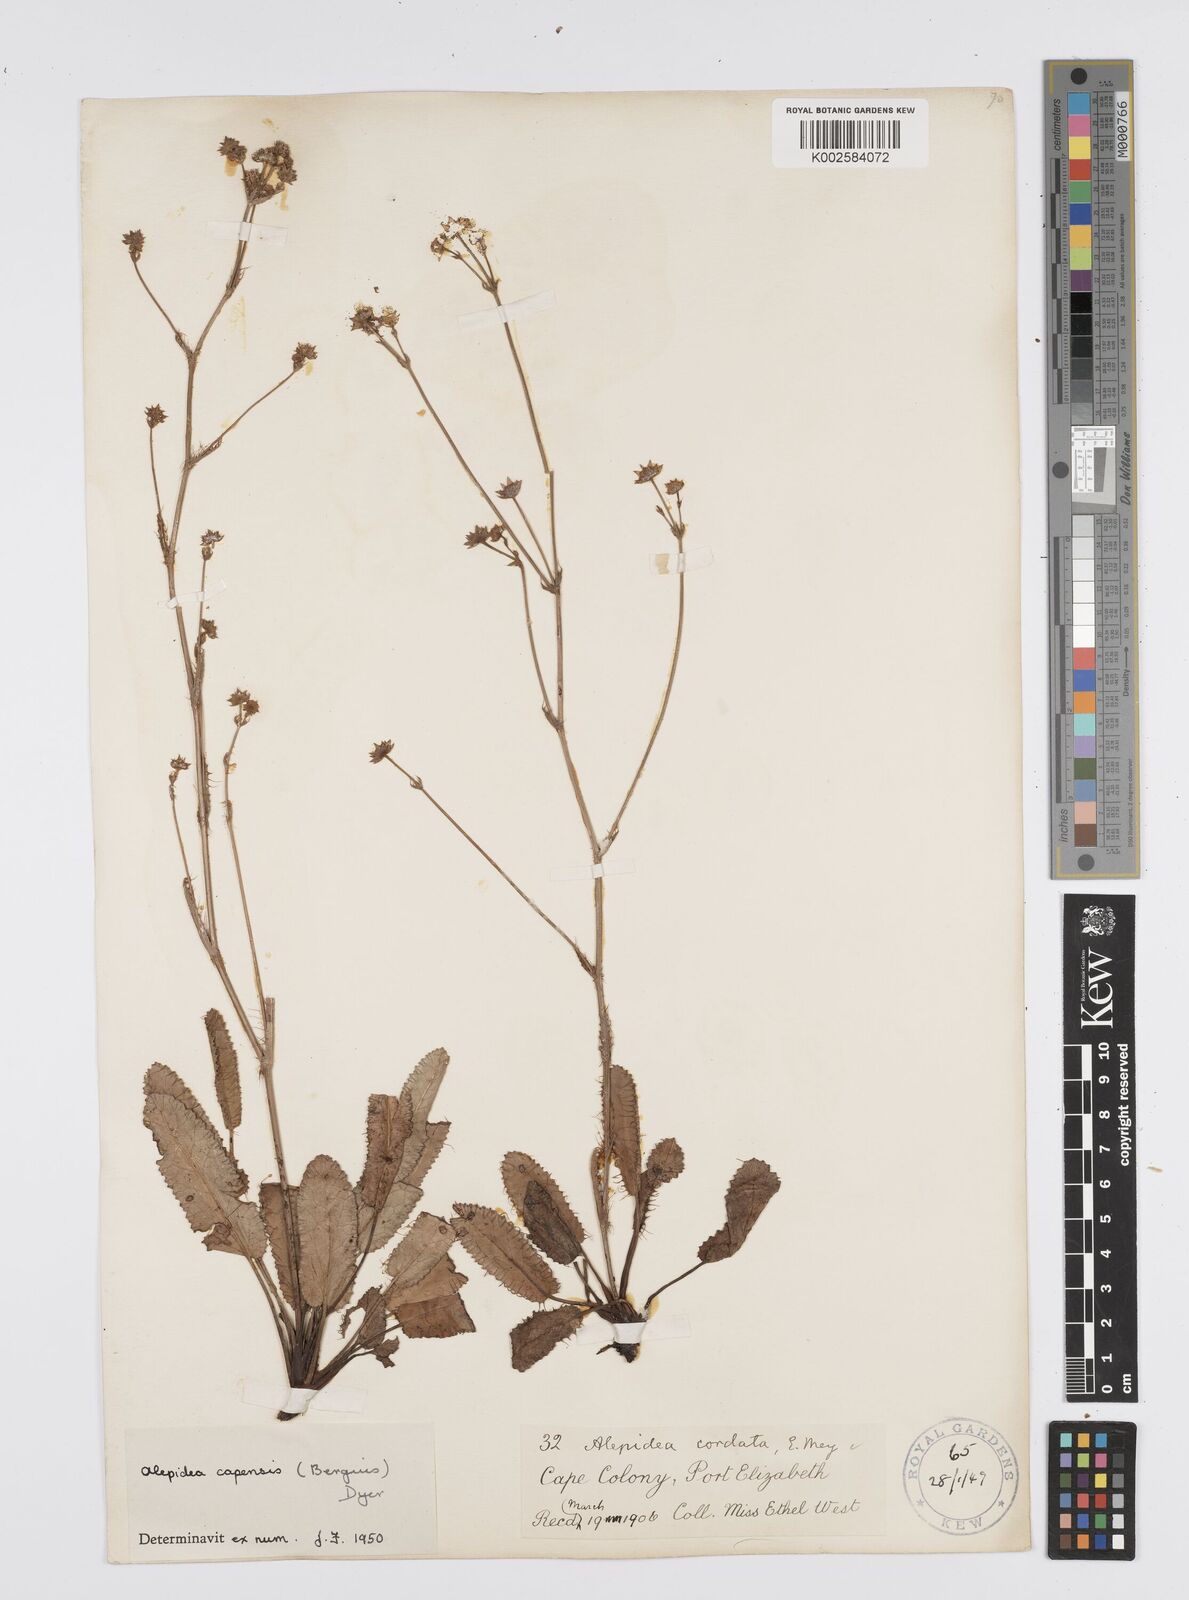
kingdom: Plantae
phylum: Tracheophyta
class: Magnoliopsida
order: Apiales
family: Apiaceae
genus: Alepidea
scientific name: Alepidea capensis
